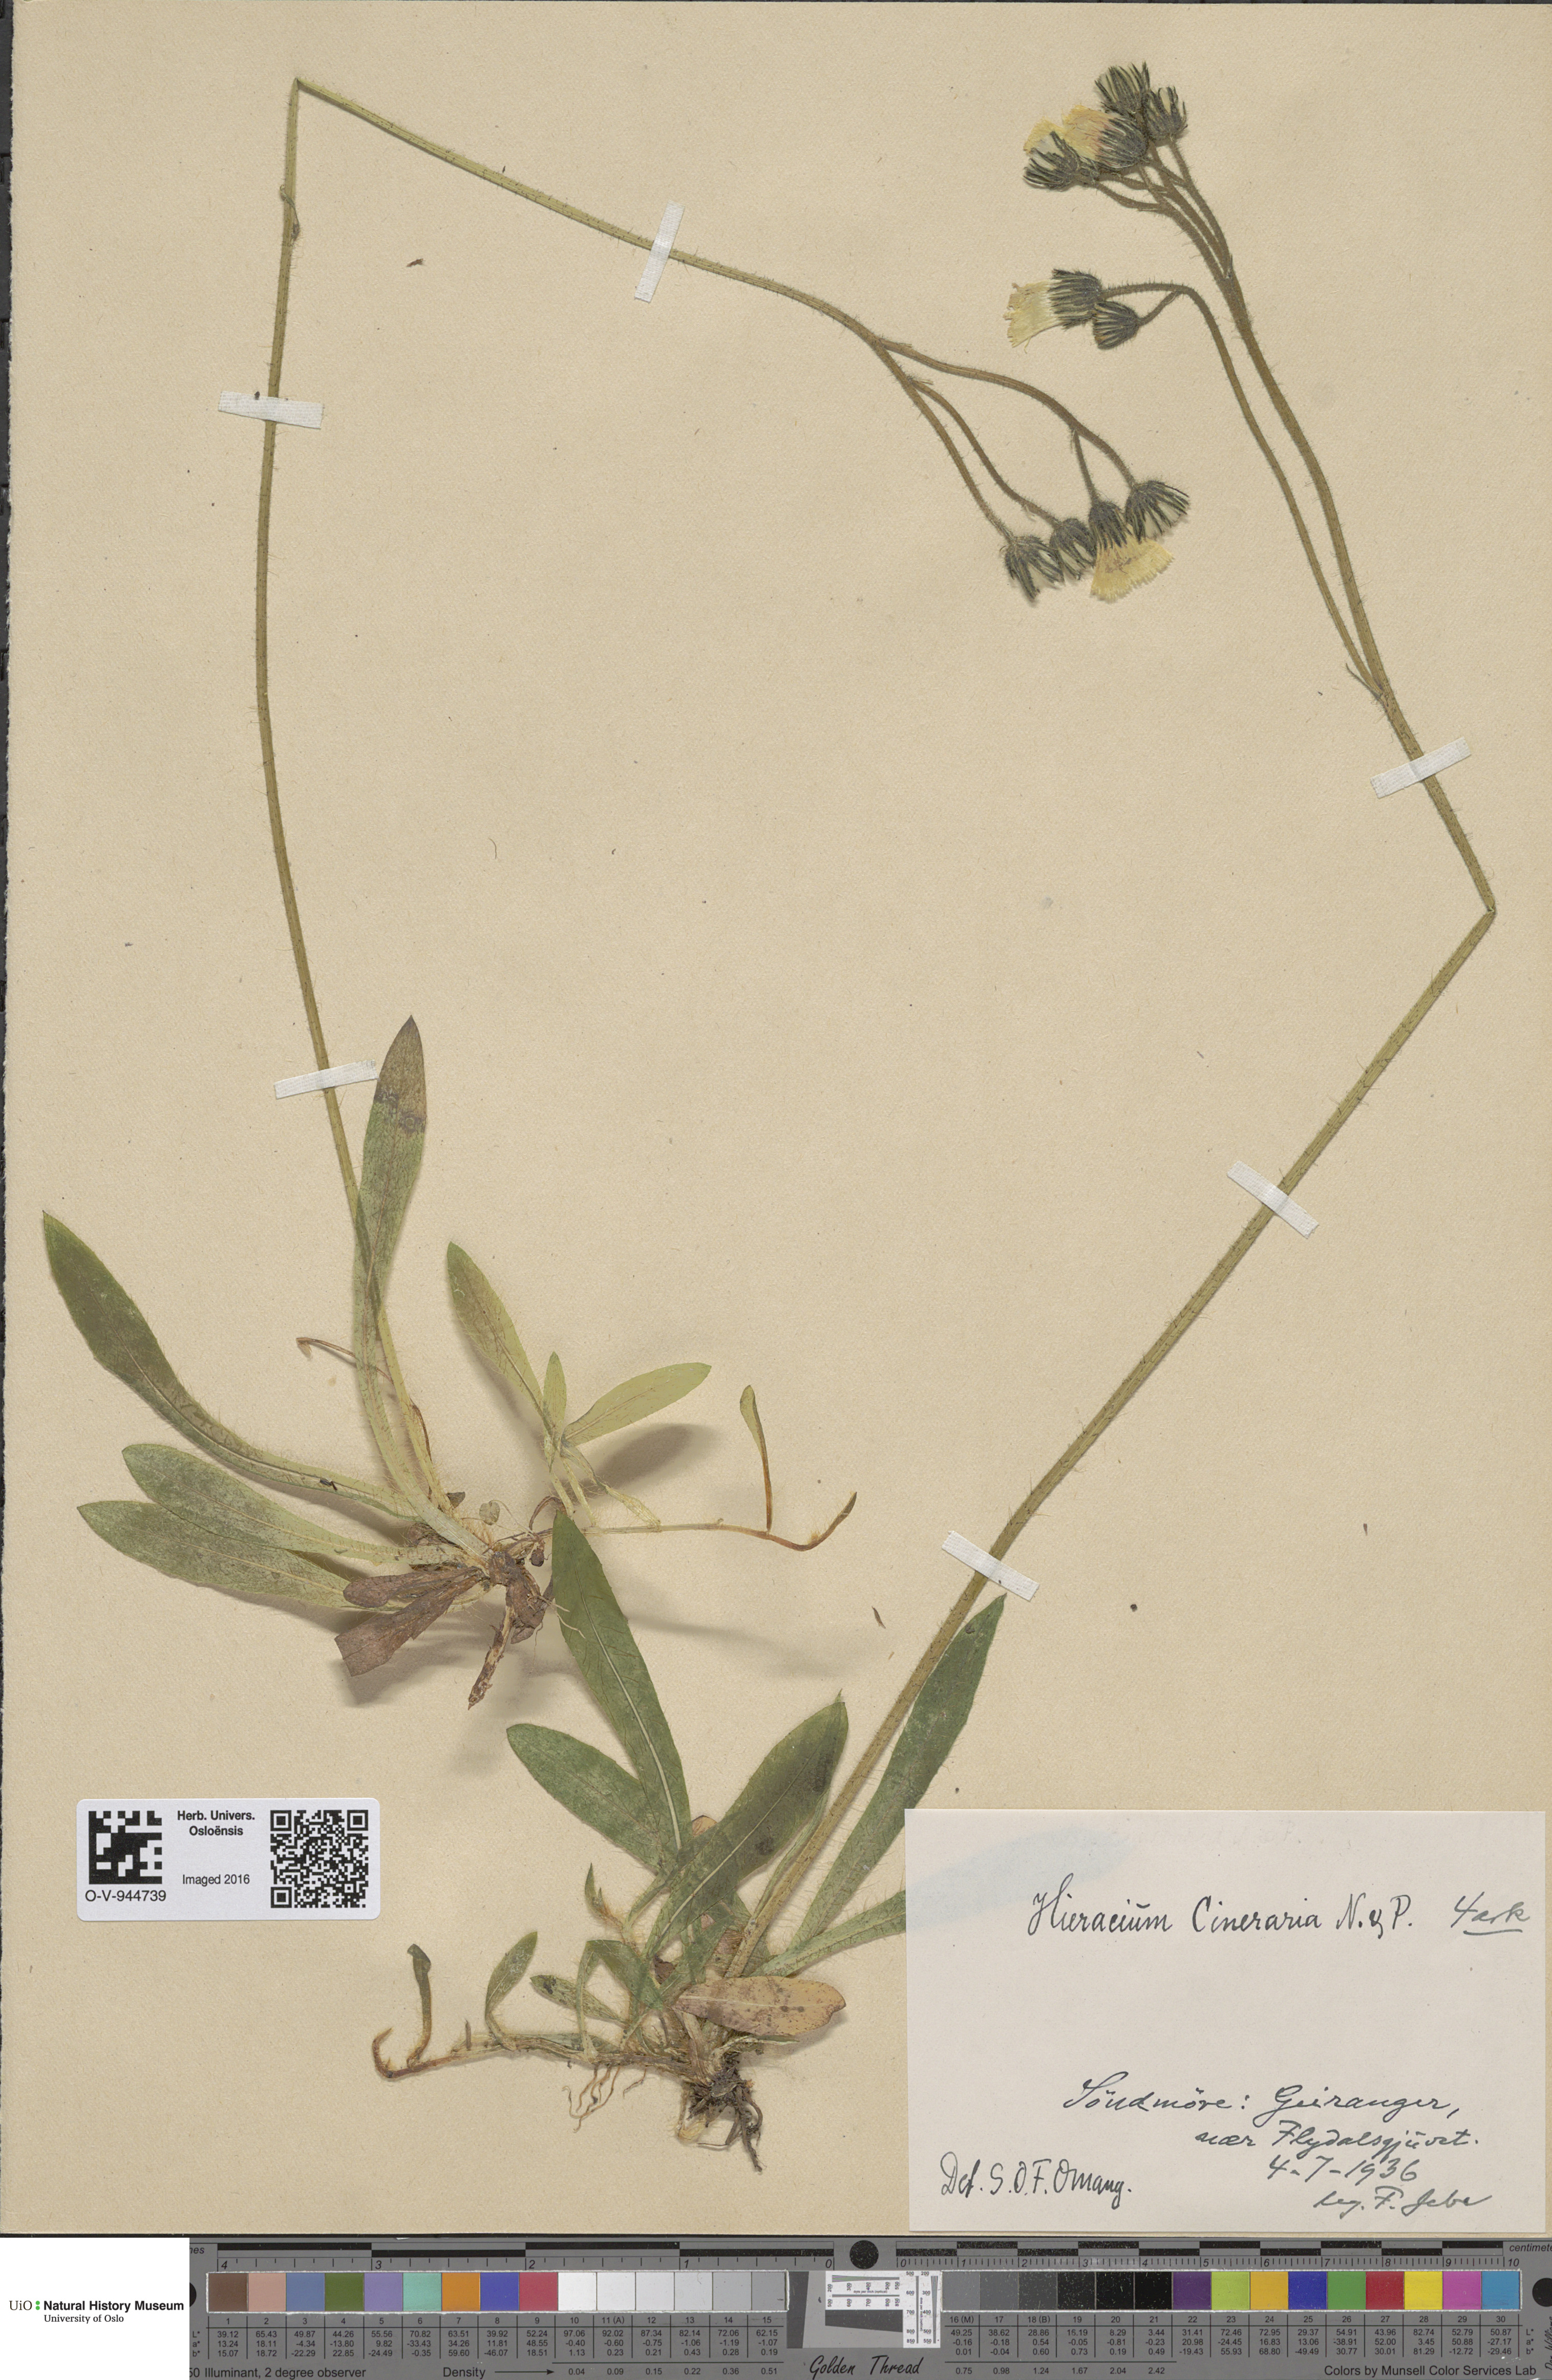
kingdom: Plantae
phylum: Tracheophyta
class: Magnoliopsida
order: Asterales
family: Asteraceae
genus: Pilosella
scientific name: Pilosella moechiadia
